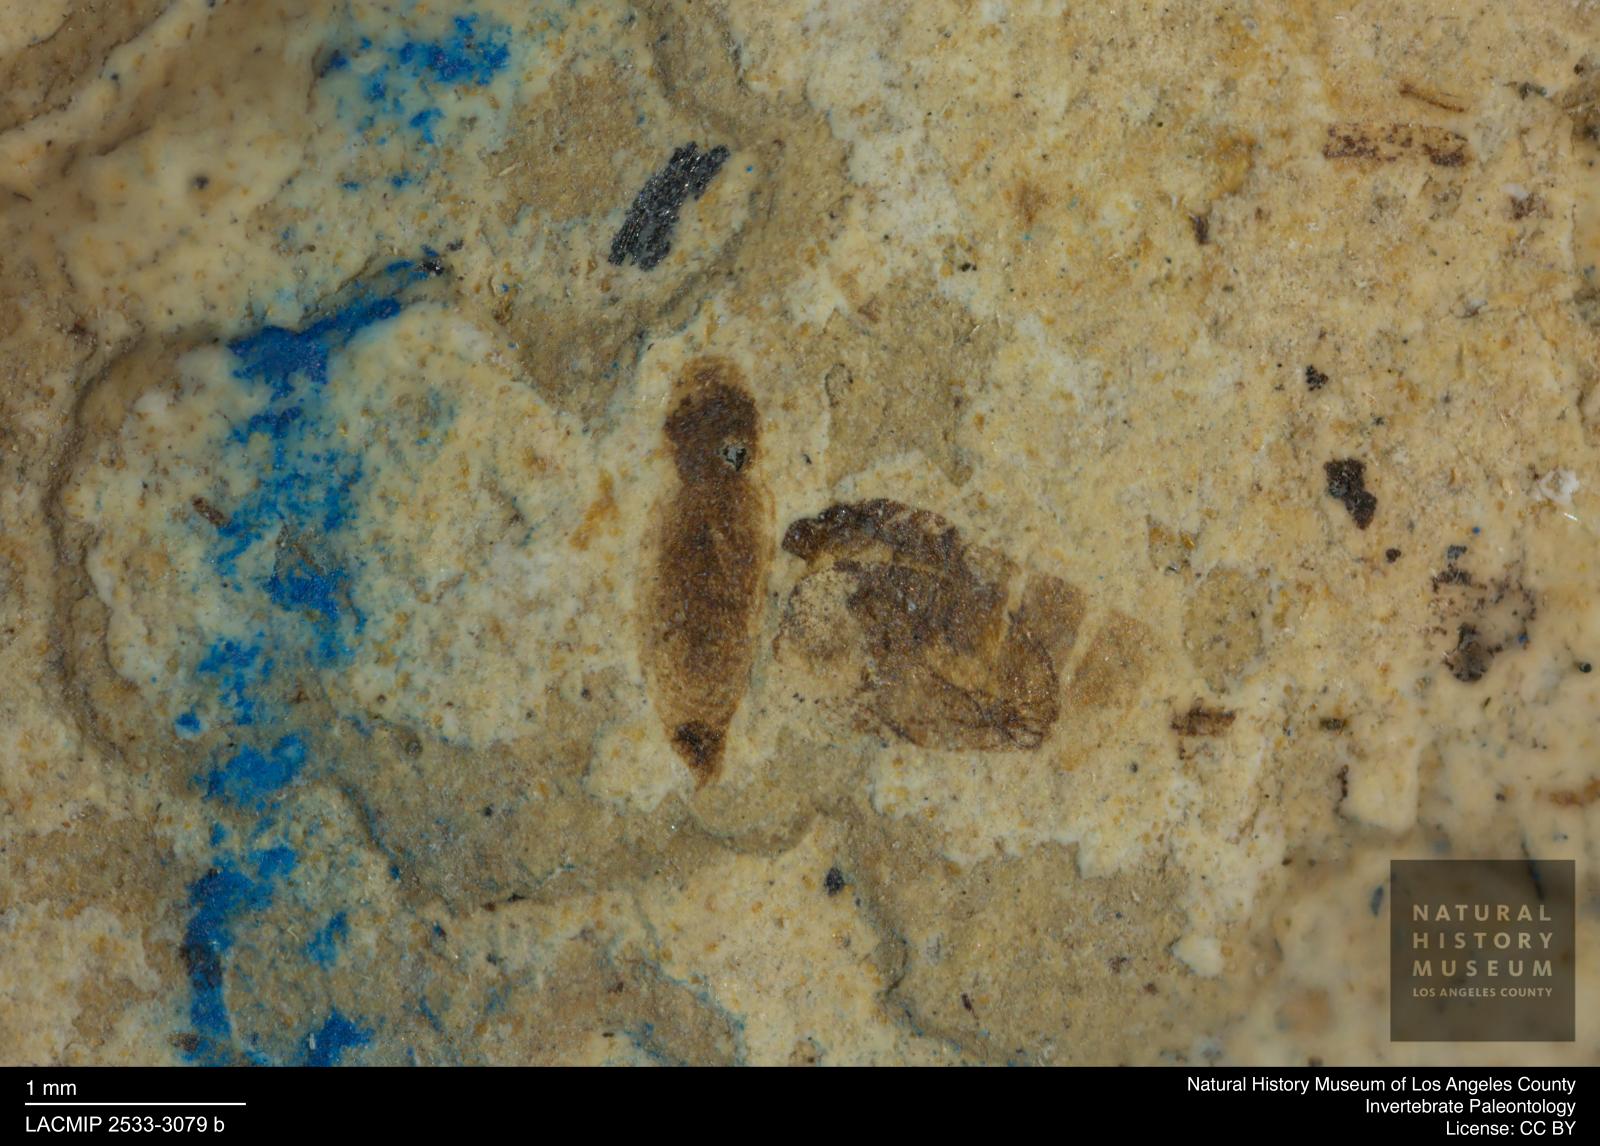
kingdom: Animalia
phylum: Arthropoda
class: Insecta
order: Thysanoptera
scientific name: Thysanoptera
